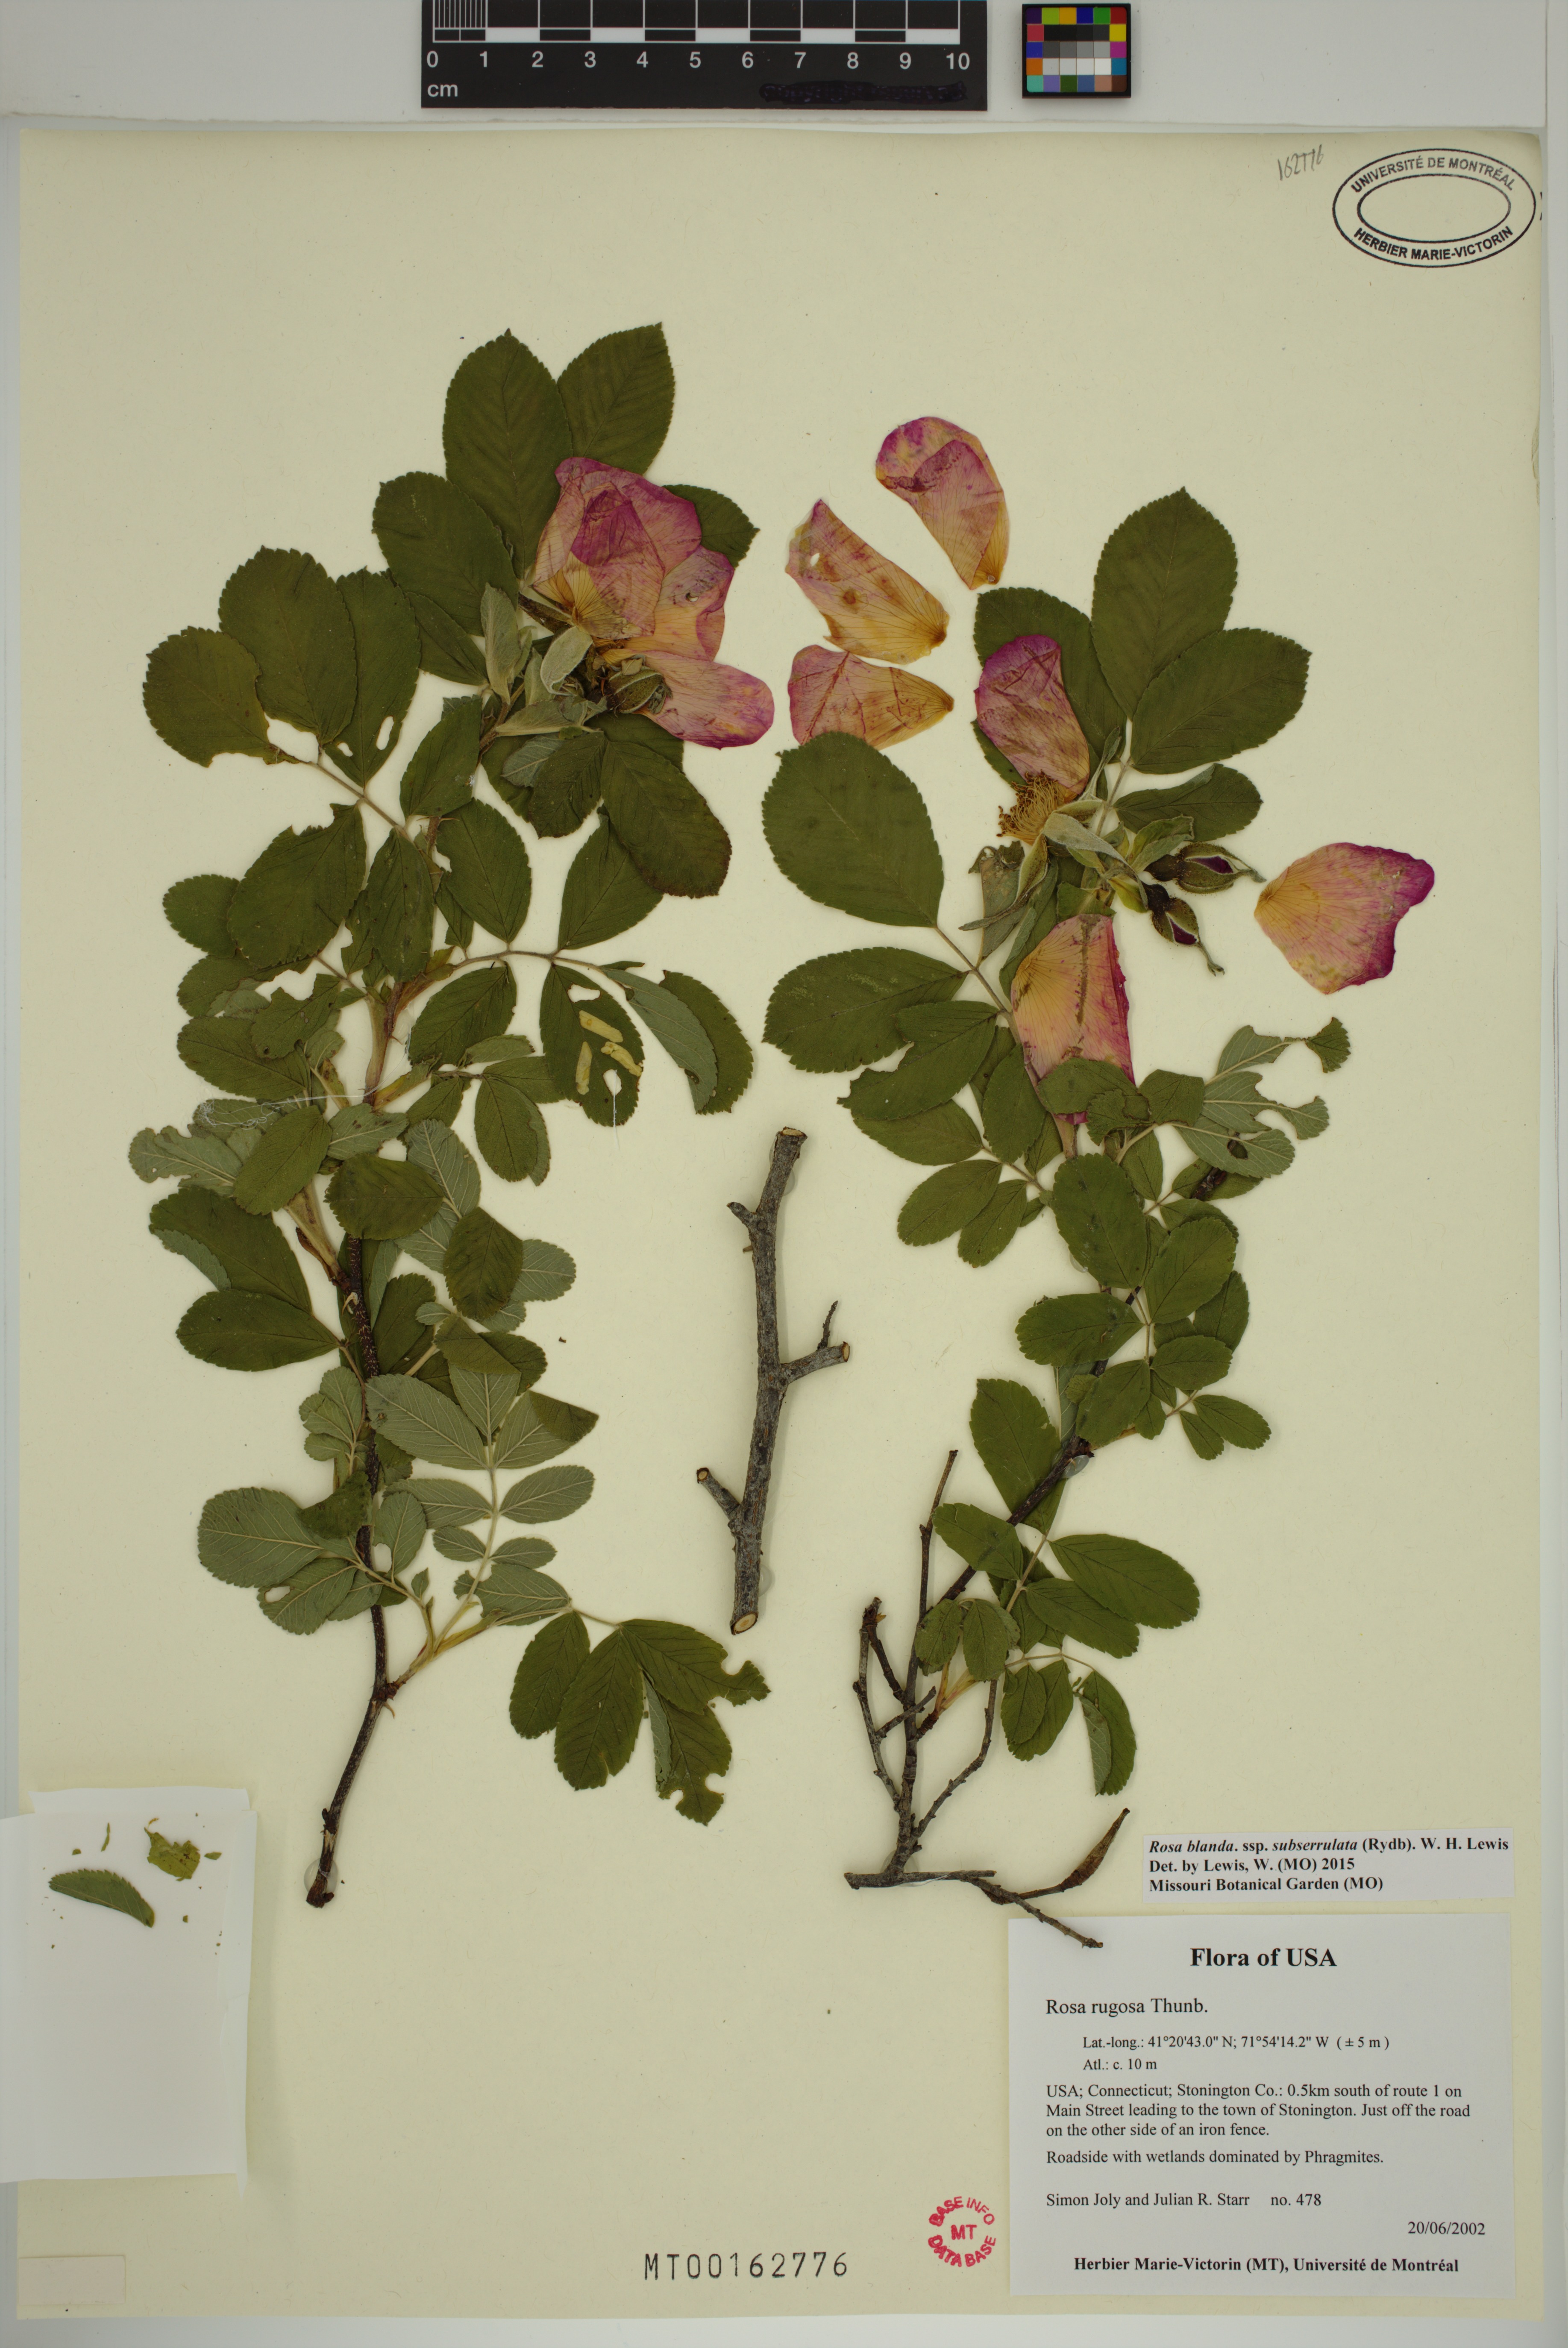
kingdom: Plantae
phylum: Tracheophyta
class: Magnoliopsida
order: Rosales
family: Rosaceae
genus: Rosa
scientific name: Rosa blanda
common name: Smooth rose
